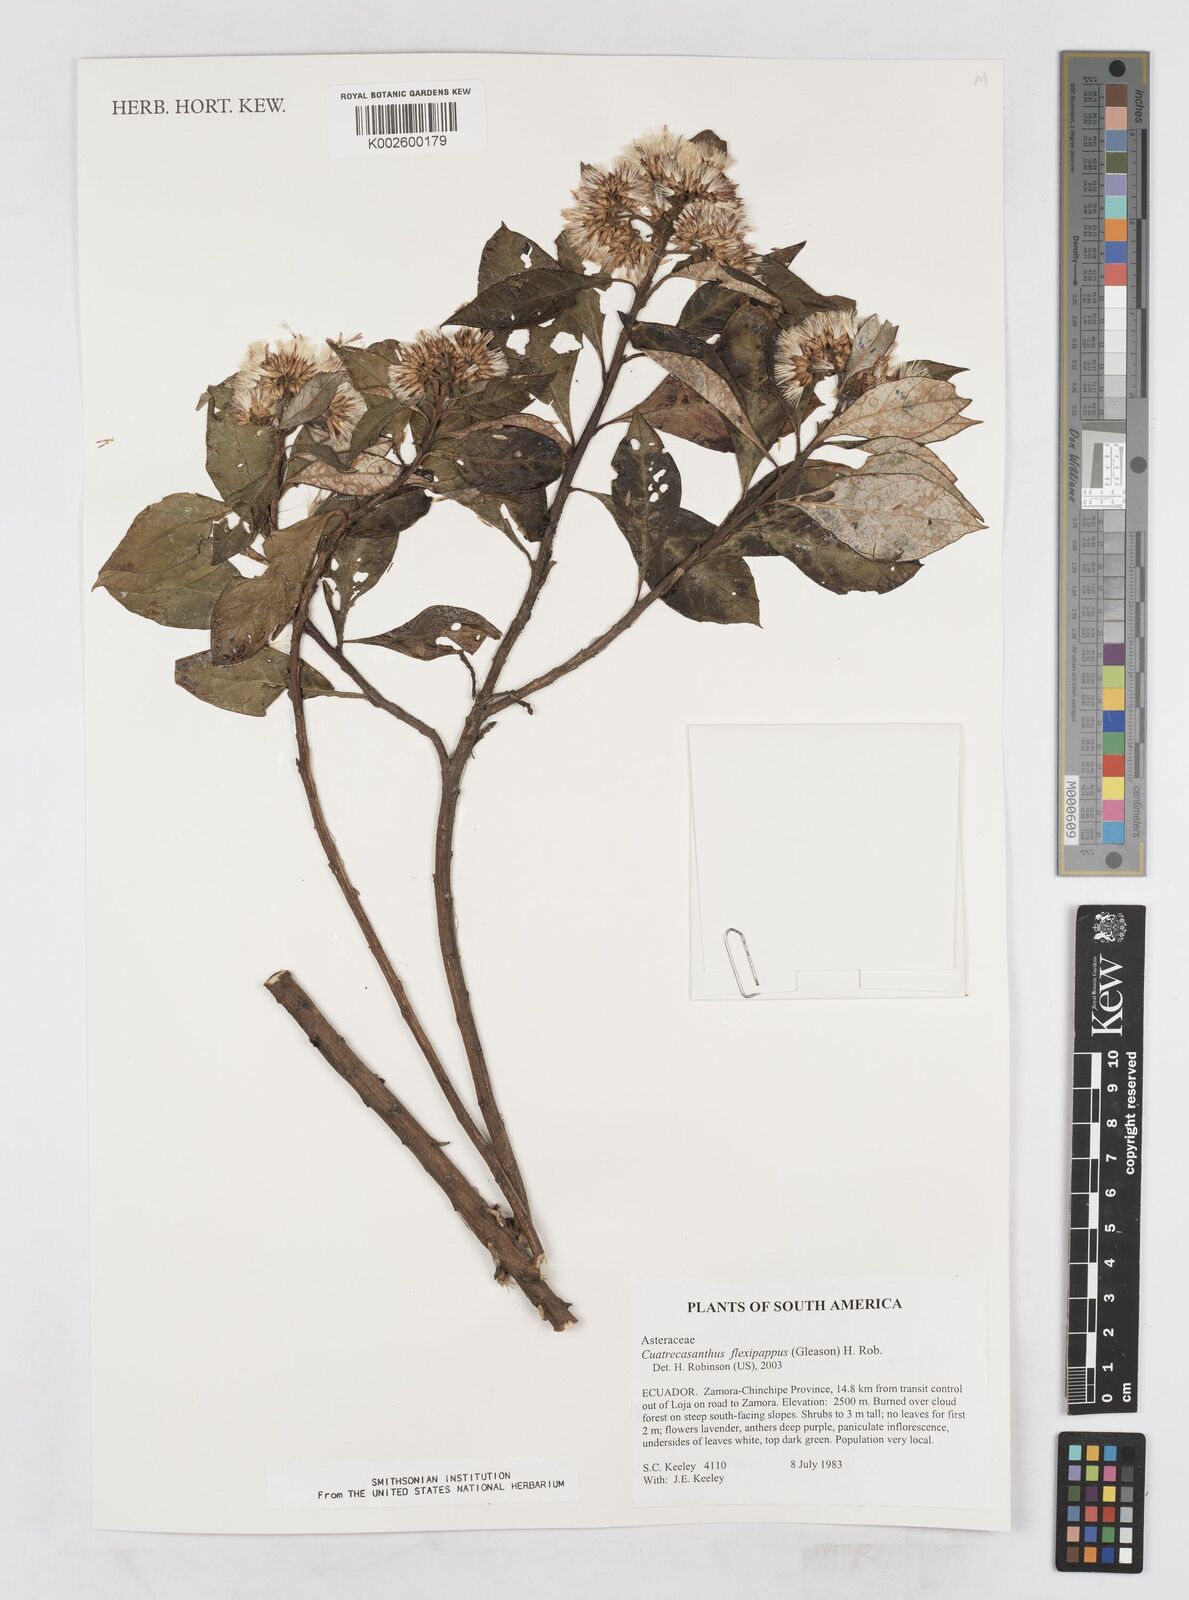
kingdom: Plantae
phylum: Tracheophyta
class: Magnoliopsida
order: Asterales
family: Asteraceae
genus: Cuatrecasanthus
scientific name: Cuatrecasanthus flexipappus
